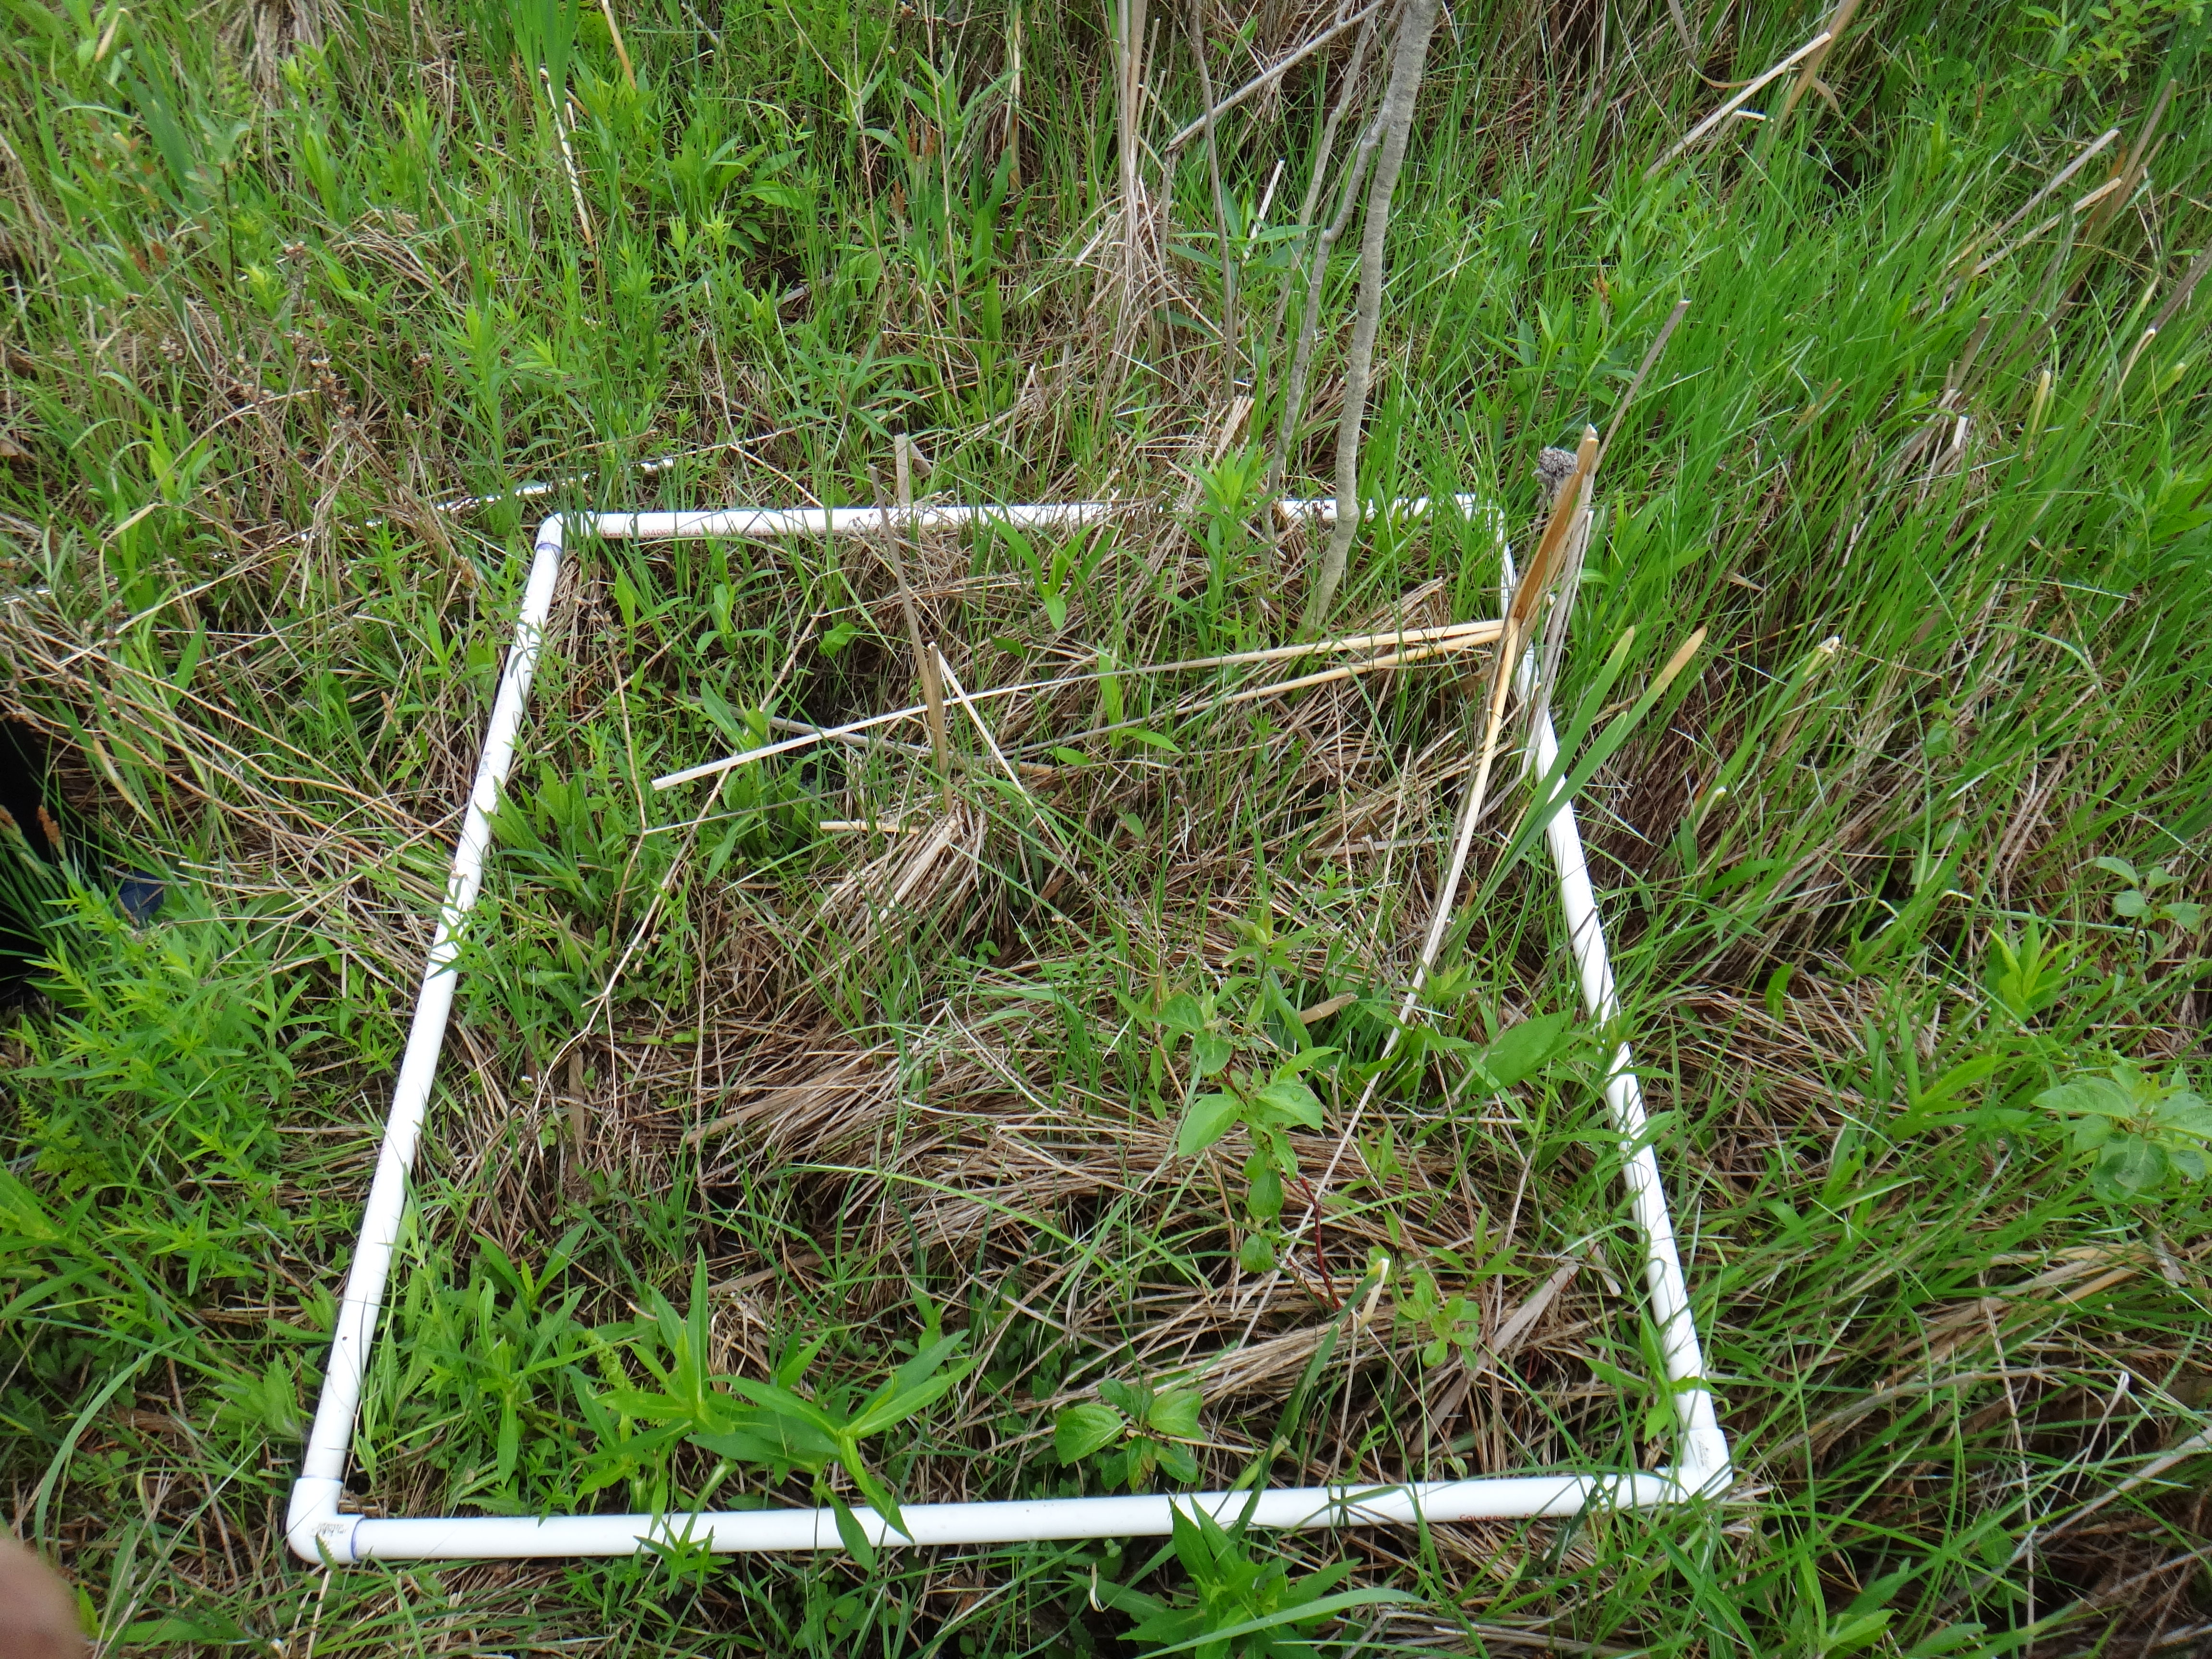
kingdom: Plantae
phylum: Tracheophyta
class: Magnoliopsida
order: Cornales
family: Cornaceae
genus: Cornus
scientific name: Cornus sericea
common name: Red-osier dogwood
